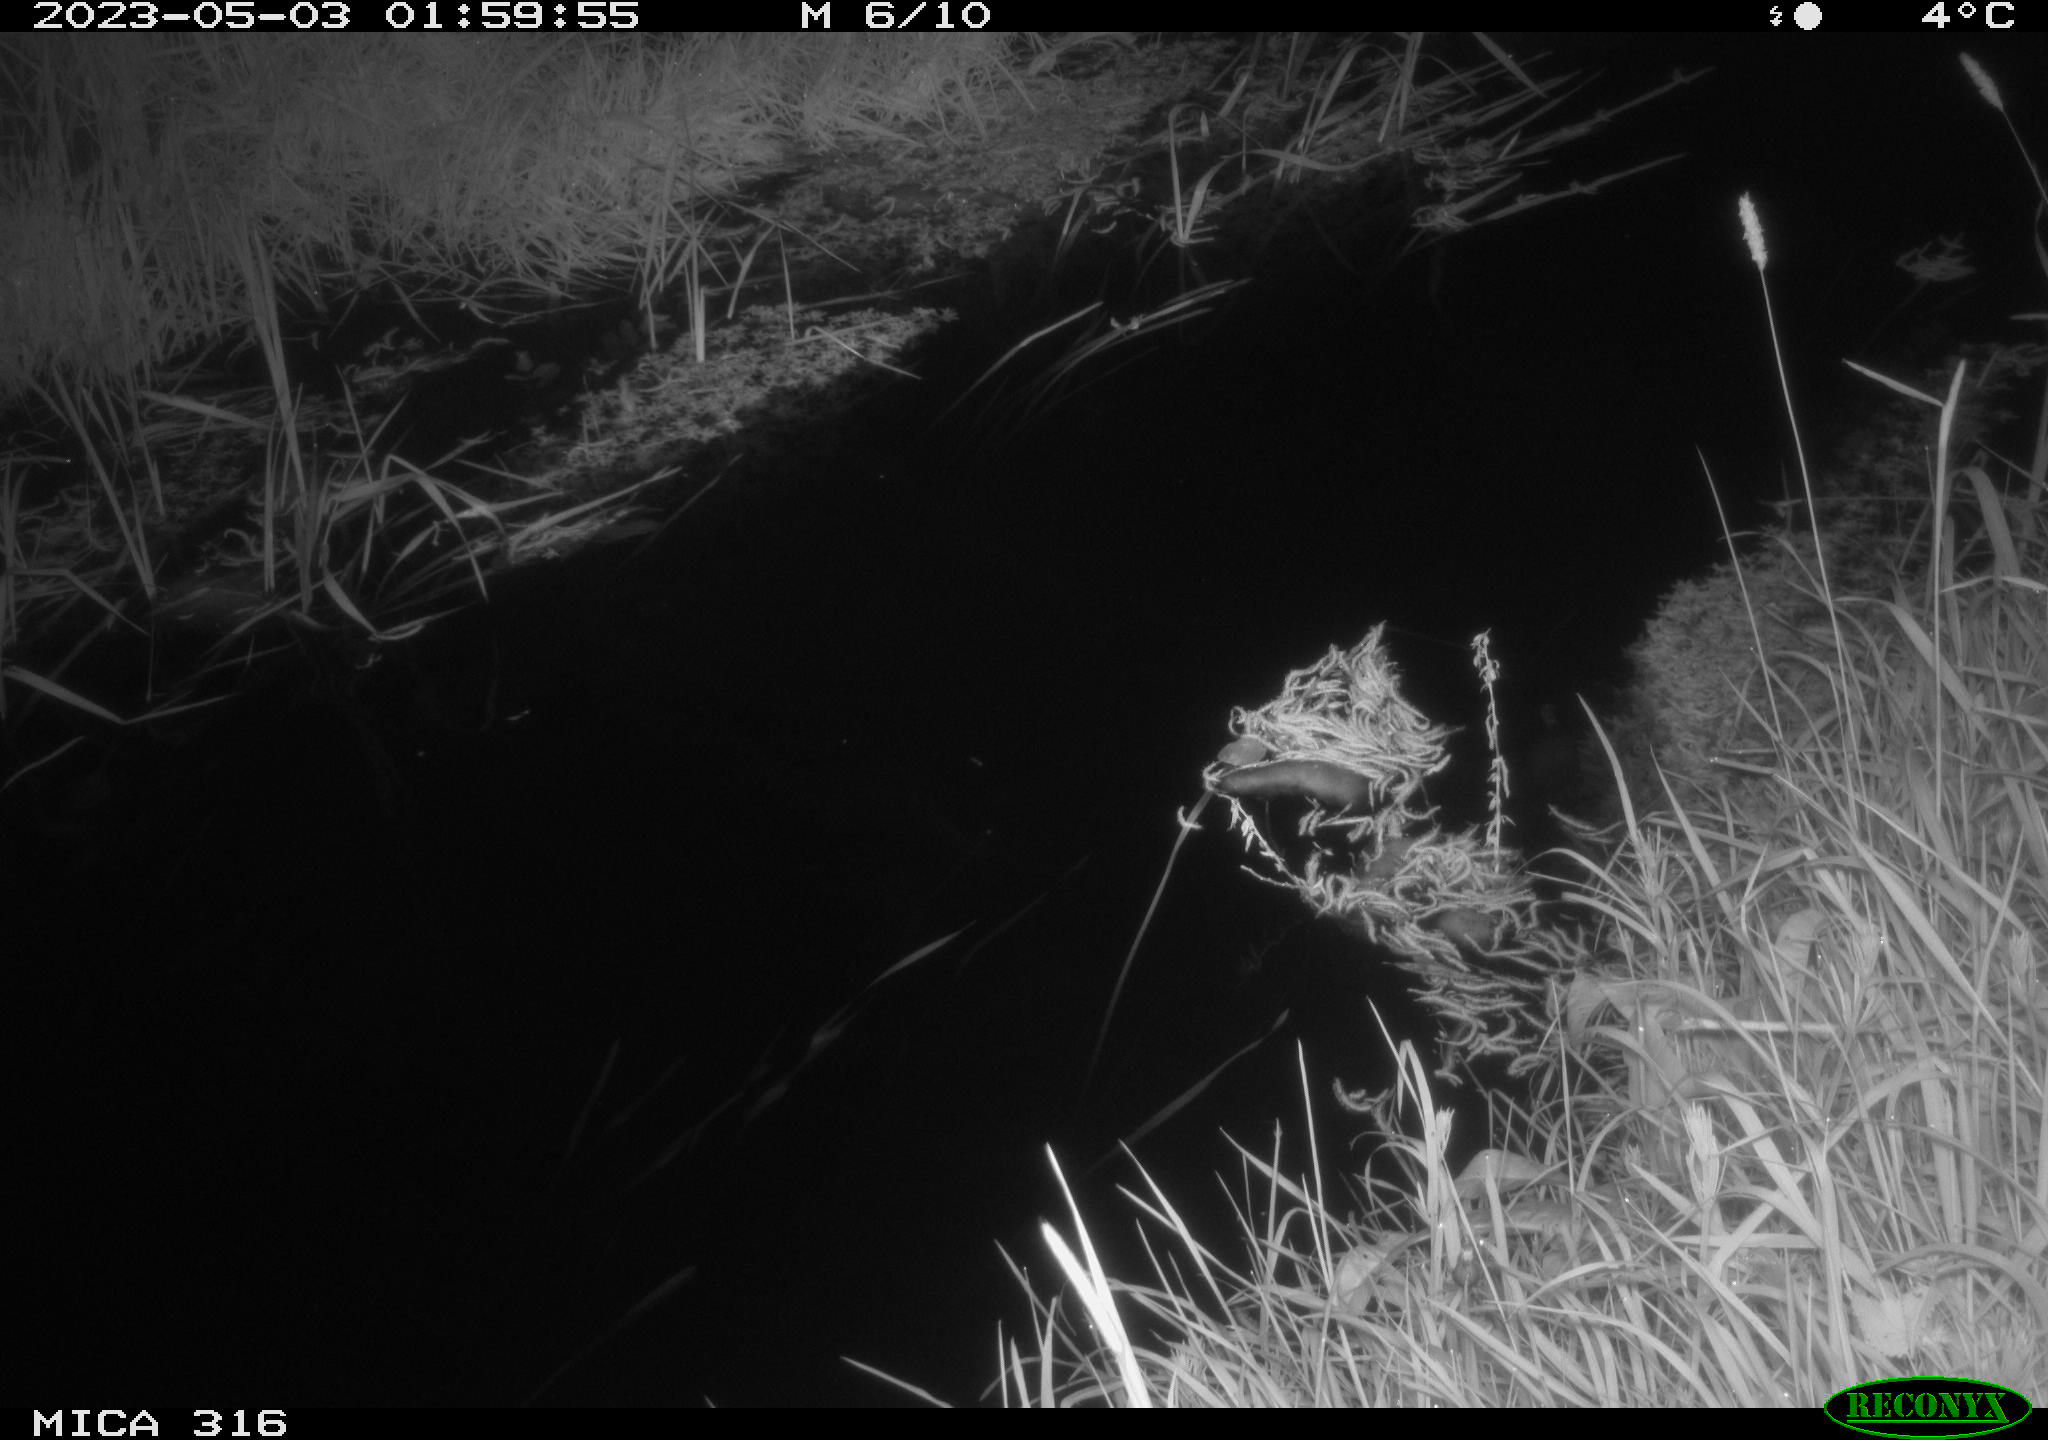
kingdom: Animalia
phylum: Chordata
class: Aves
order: Gruiformes
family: Rallidae
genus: Gallinula
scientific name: Gallinula chloropus
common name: Common moorhen
